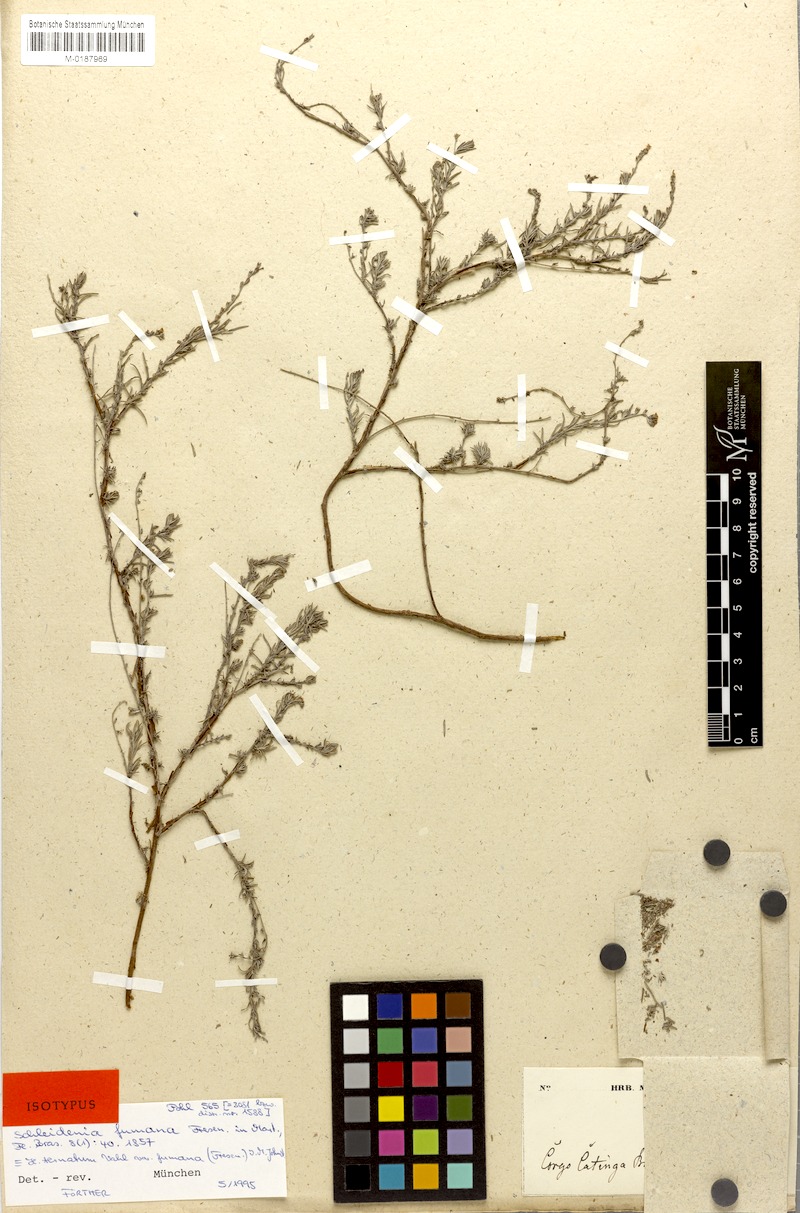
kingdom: Plantae
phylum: Tracheophyta
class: Magnoliopsida
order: Boraginales
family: Heliotropiaceae
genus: Euploca
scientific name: Euploca humilis
